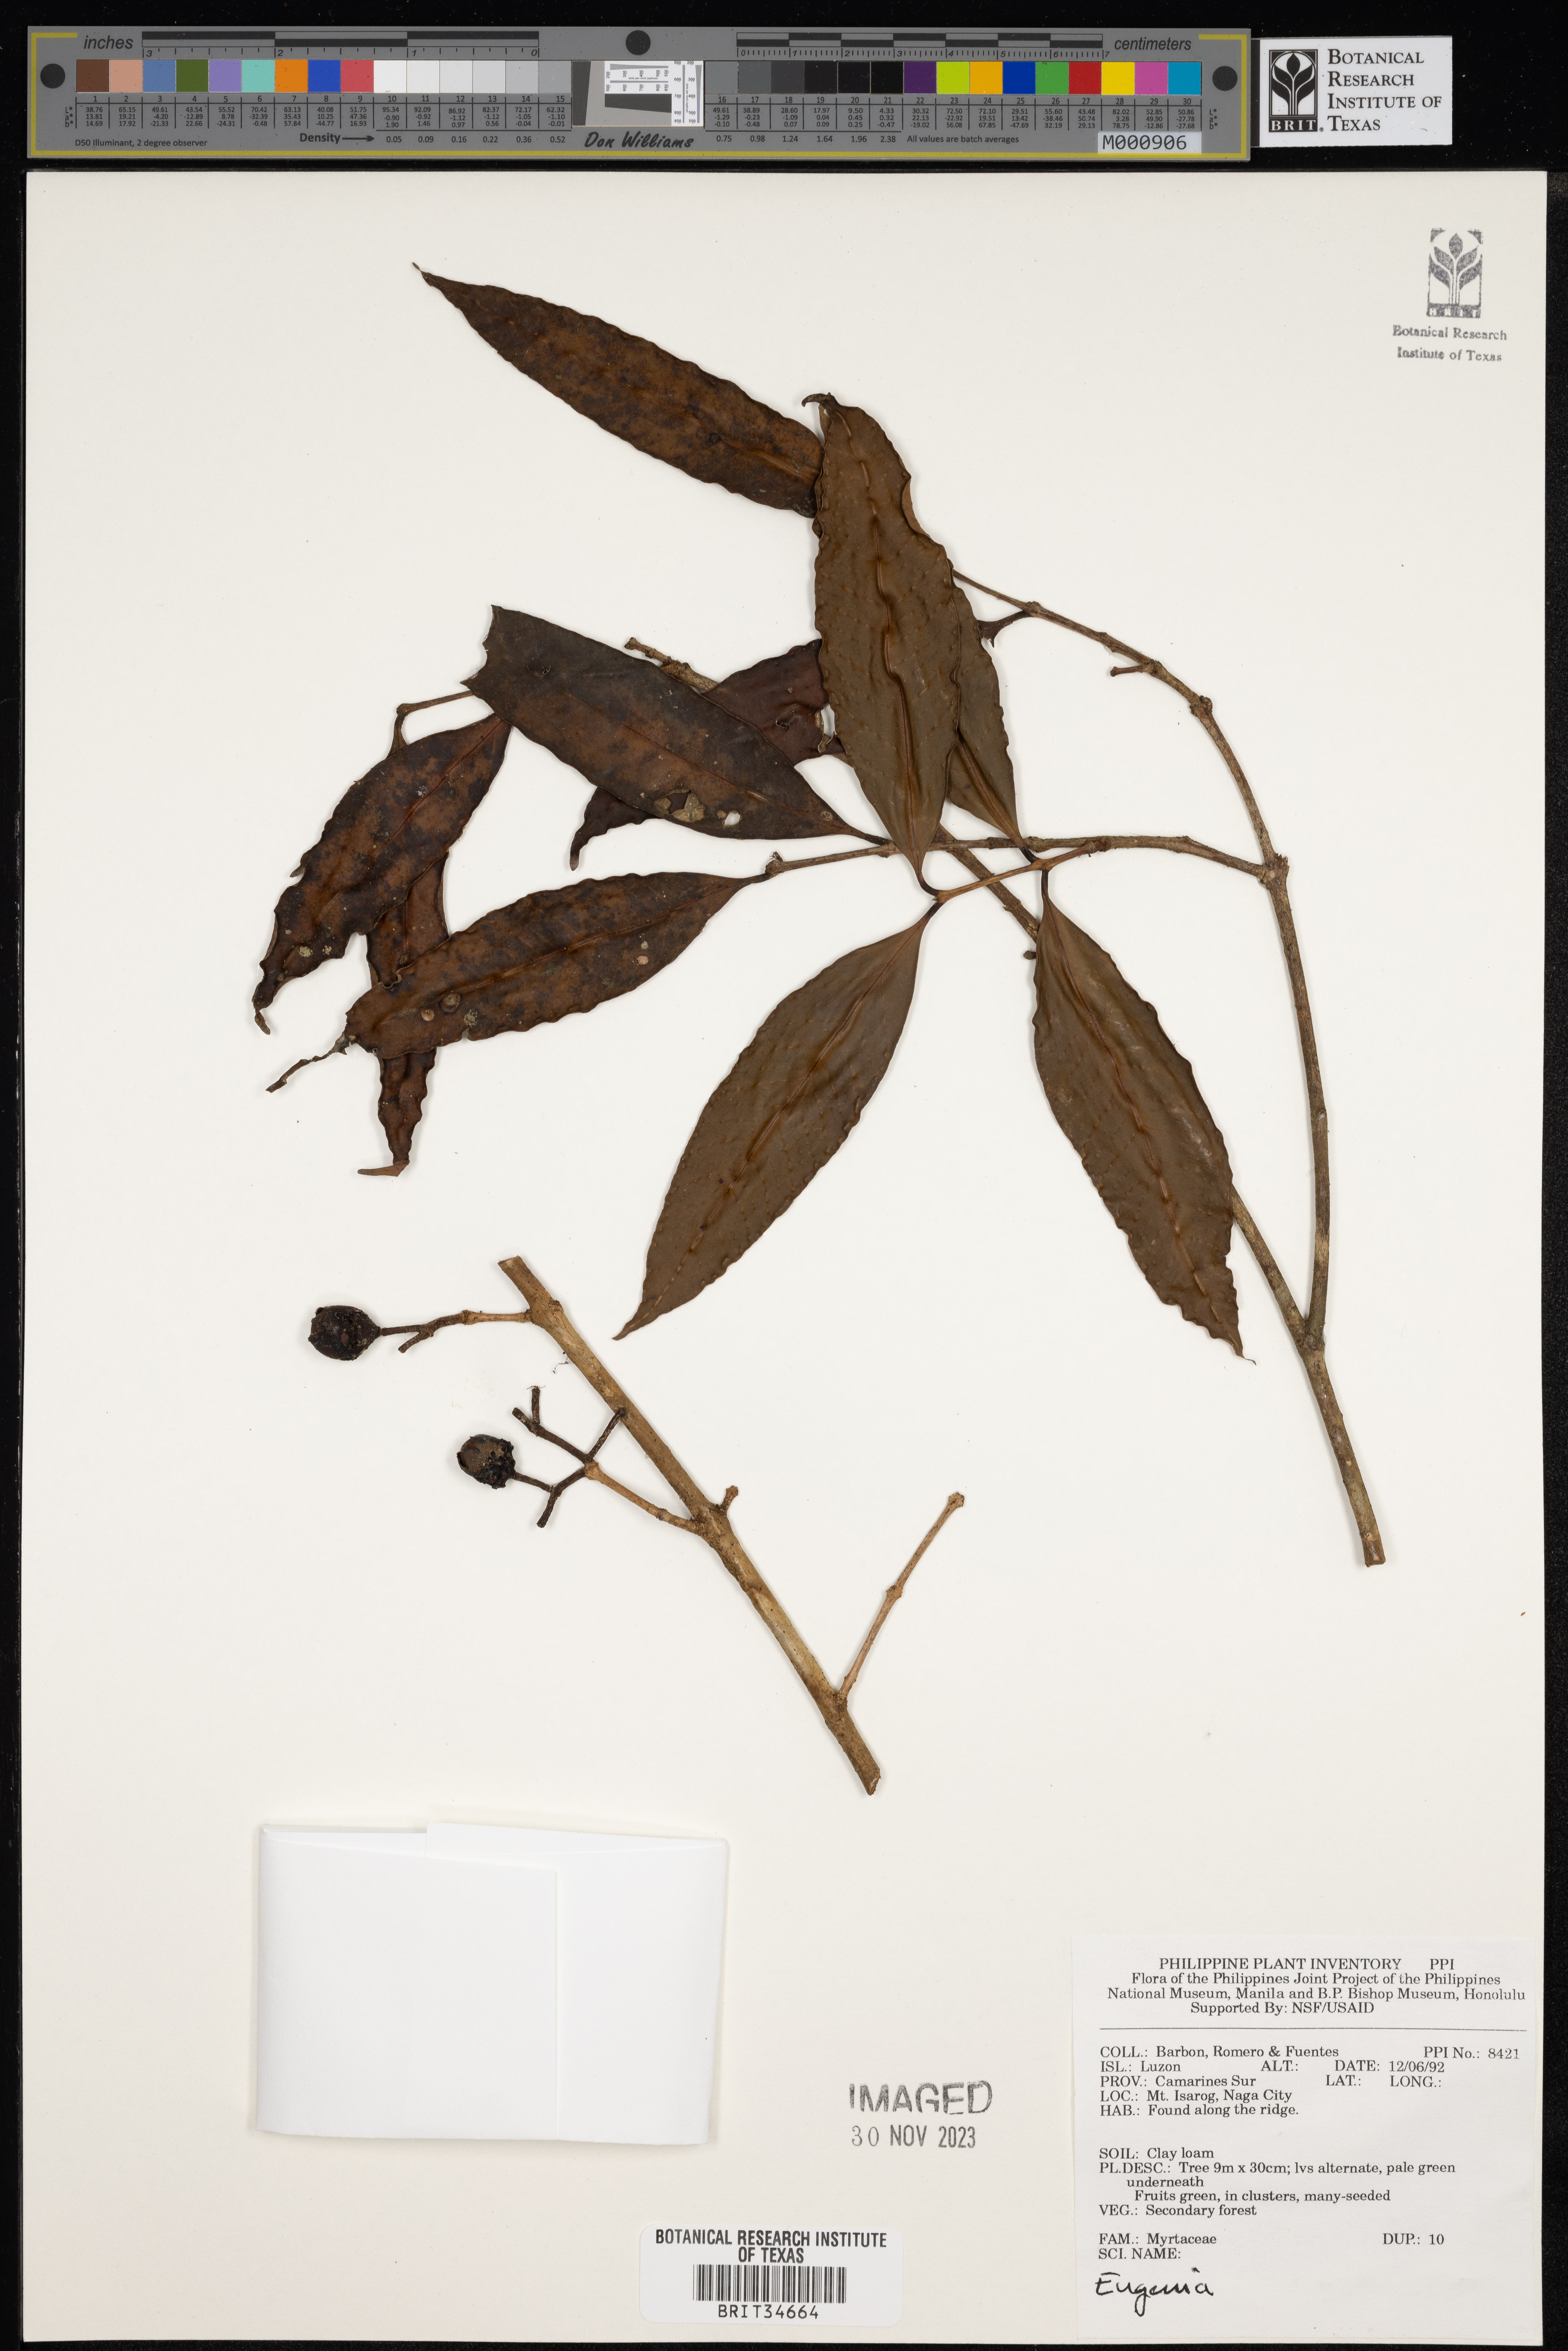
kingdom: Plantae
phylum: Tracheophyta
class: Magnoliopsida
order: Myrtales
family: Myrtaceae
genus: Eugenia
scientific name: Eugenia
